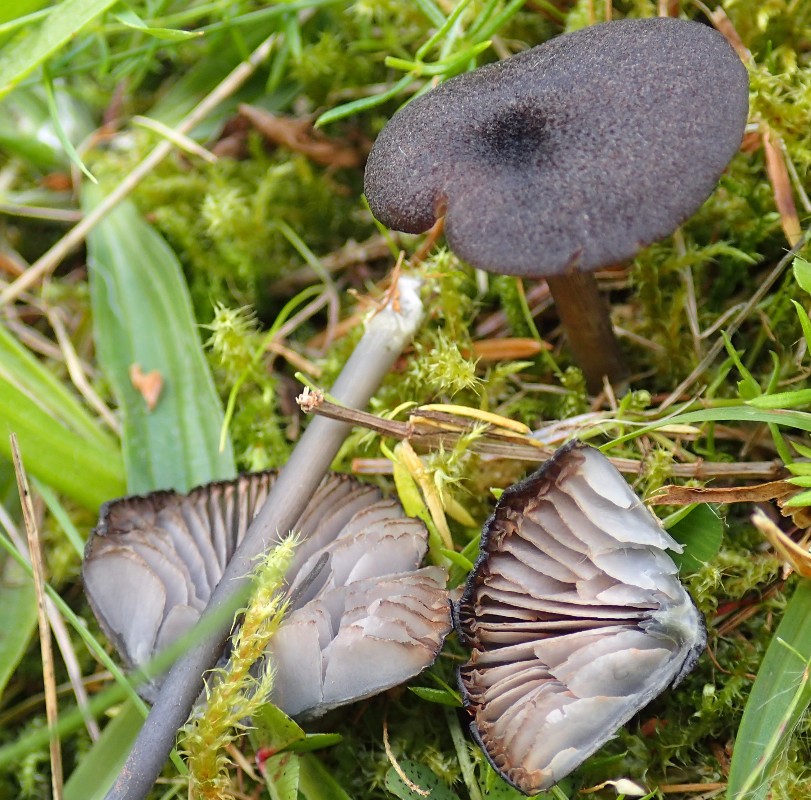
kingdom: Fungi
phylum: Basidiomycota
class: Agaricomycetes
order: Agaricales
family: Entolomataceae
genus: Entoloma
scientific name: Entoloma
